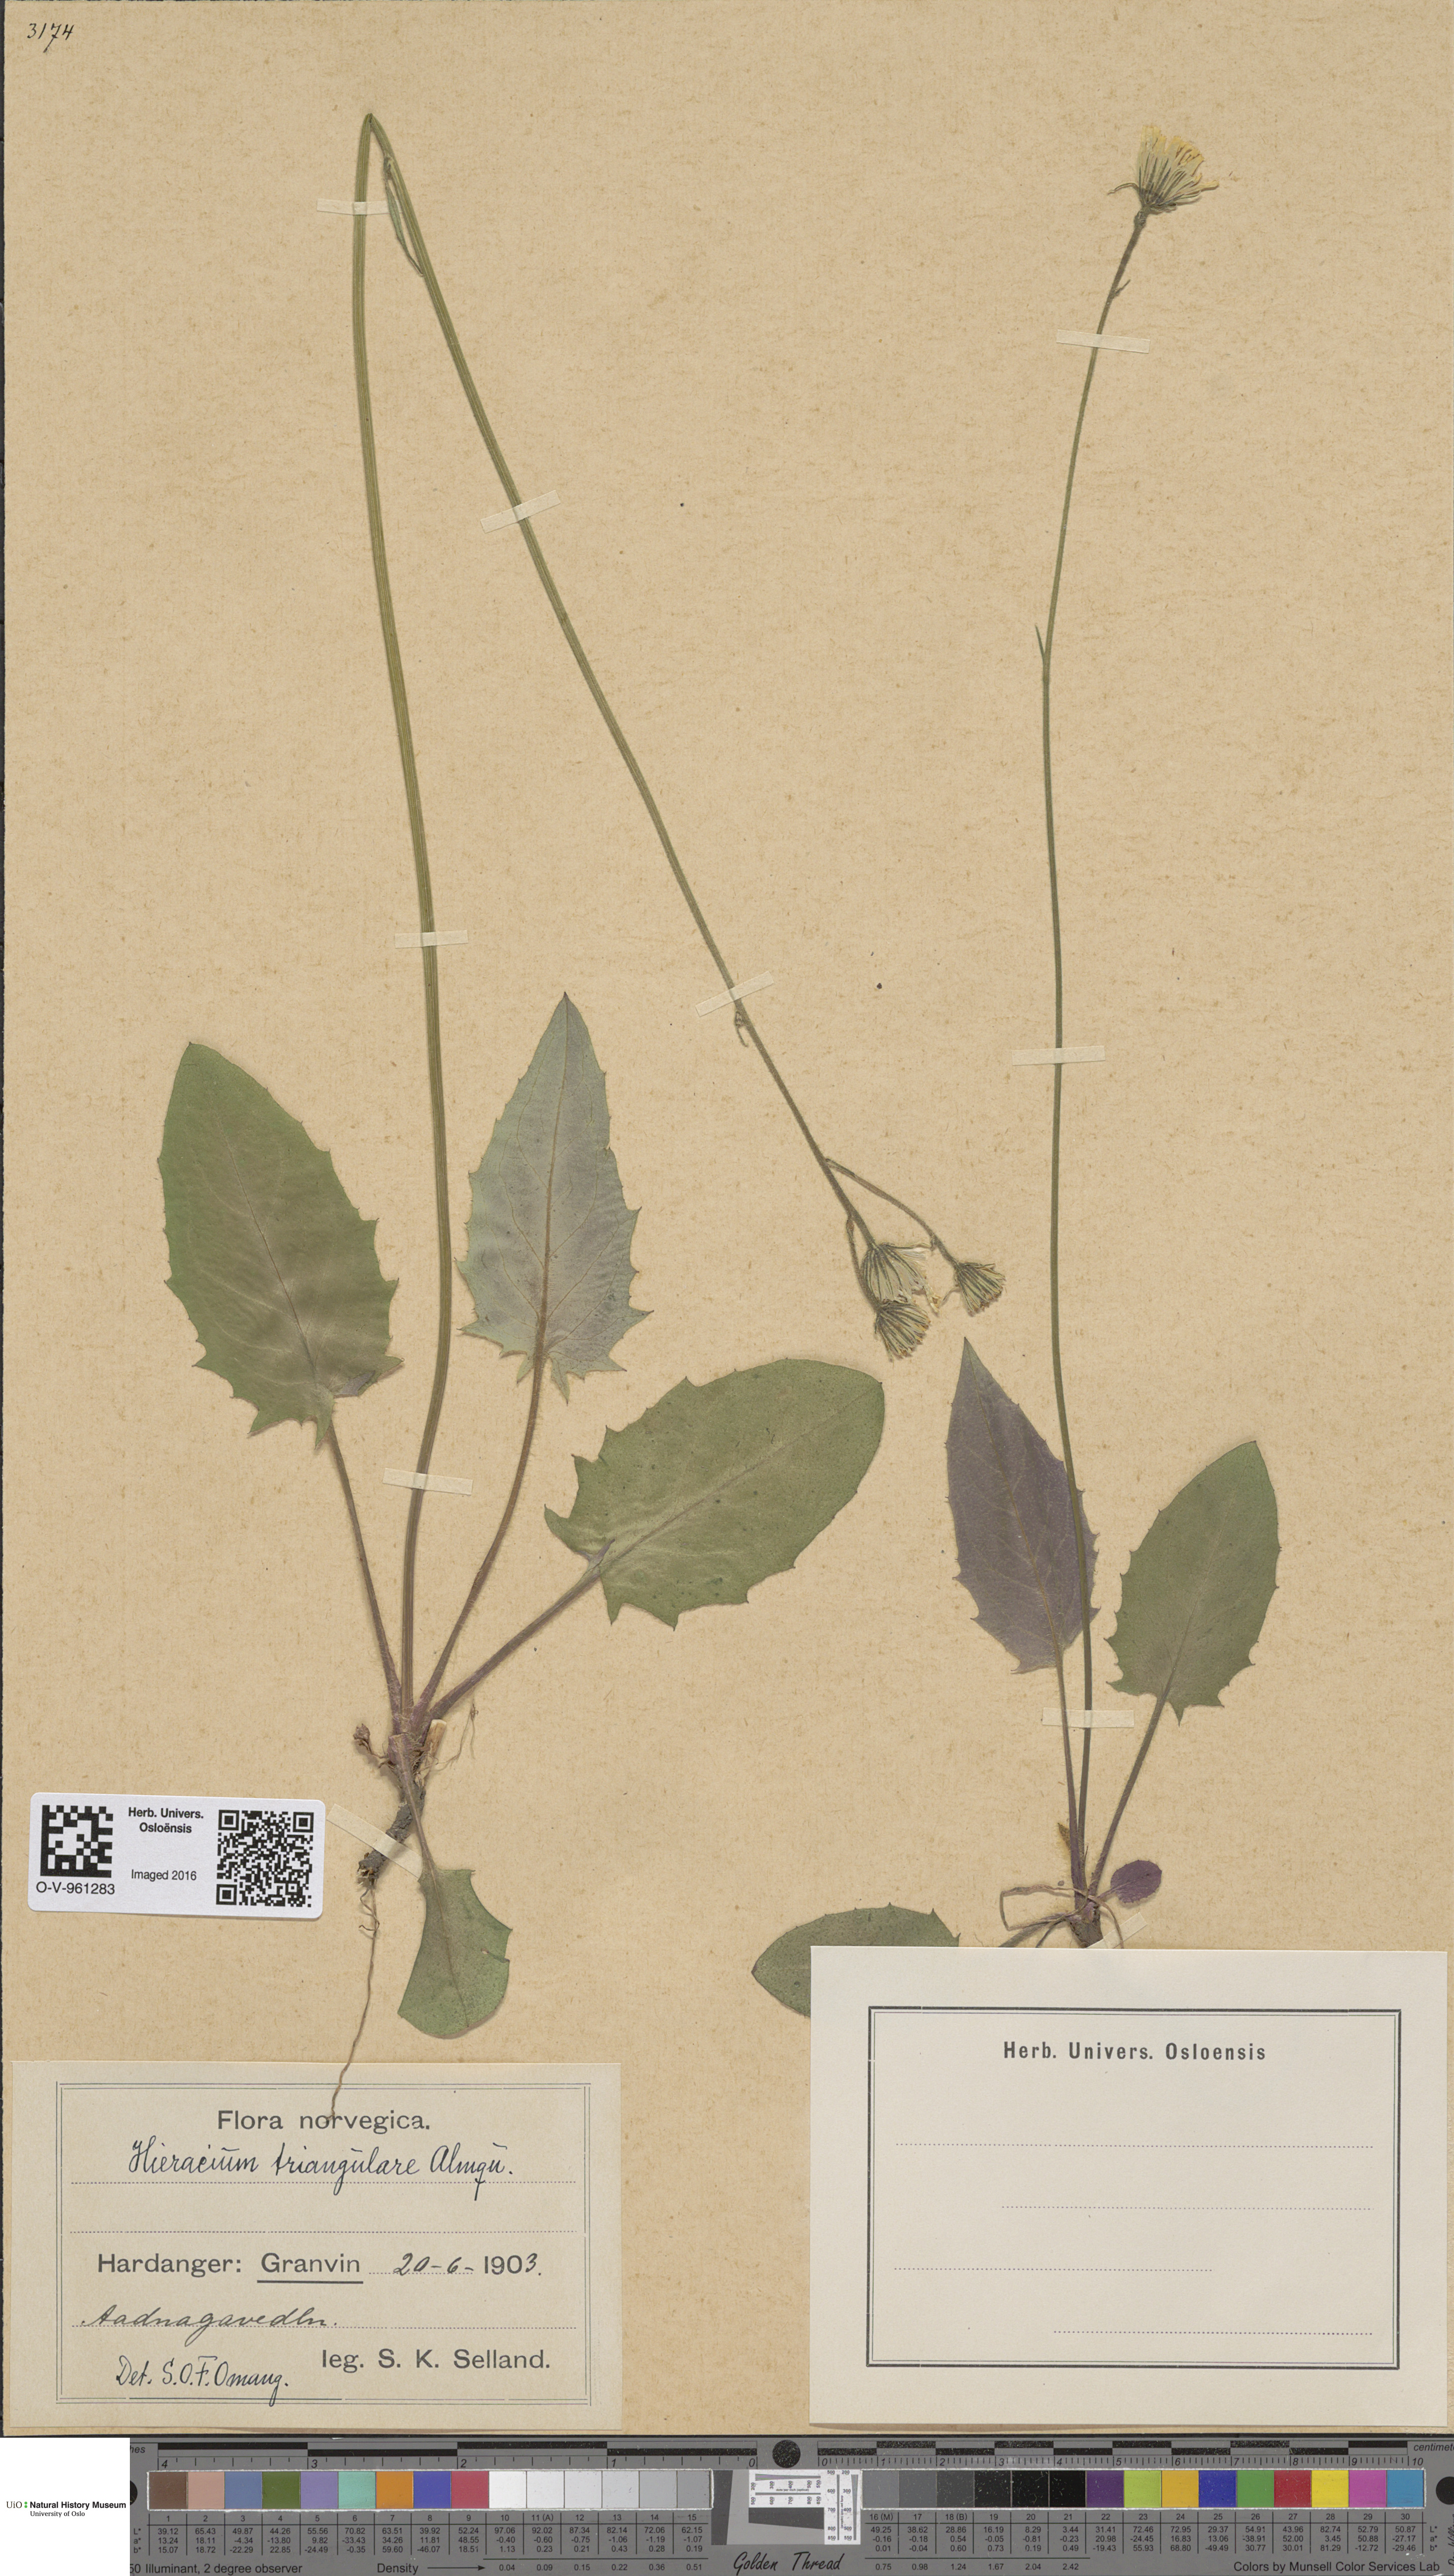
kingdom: Plantae
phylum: Tracheophyta
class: Magnoliopsida
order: Asterales
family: Asteraceae
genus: Hieracium
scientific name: Hieracium triangulare
